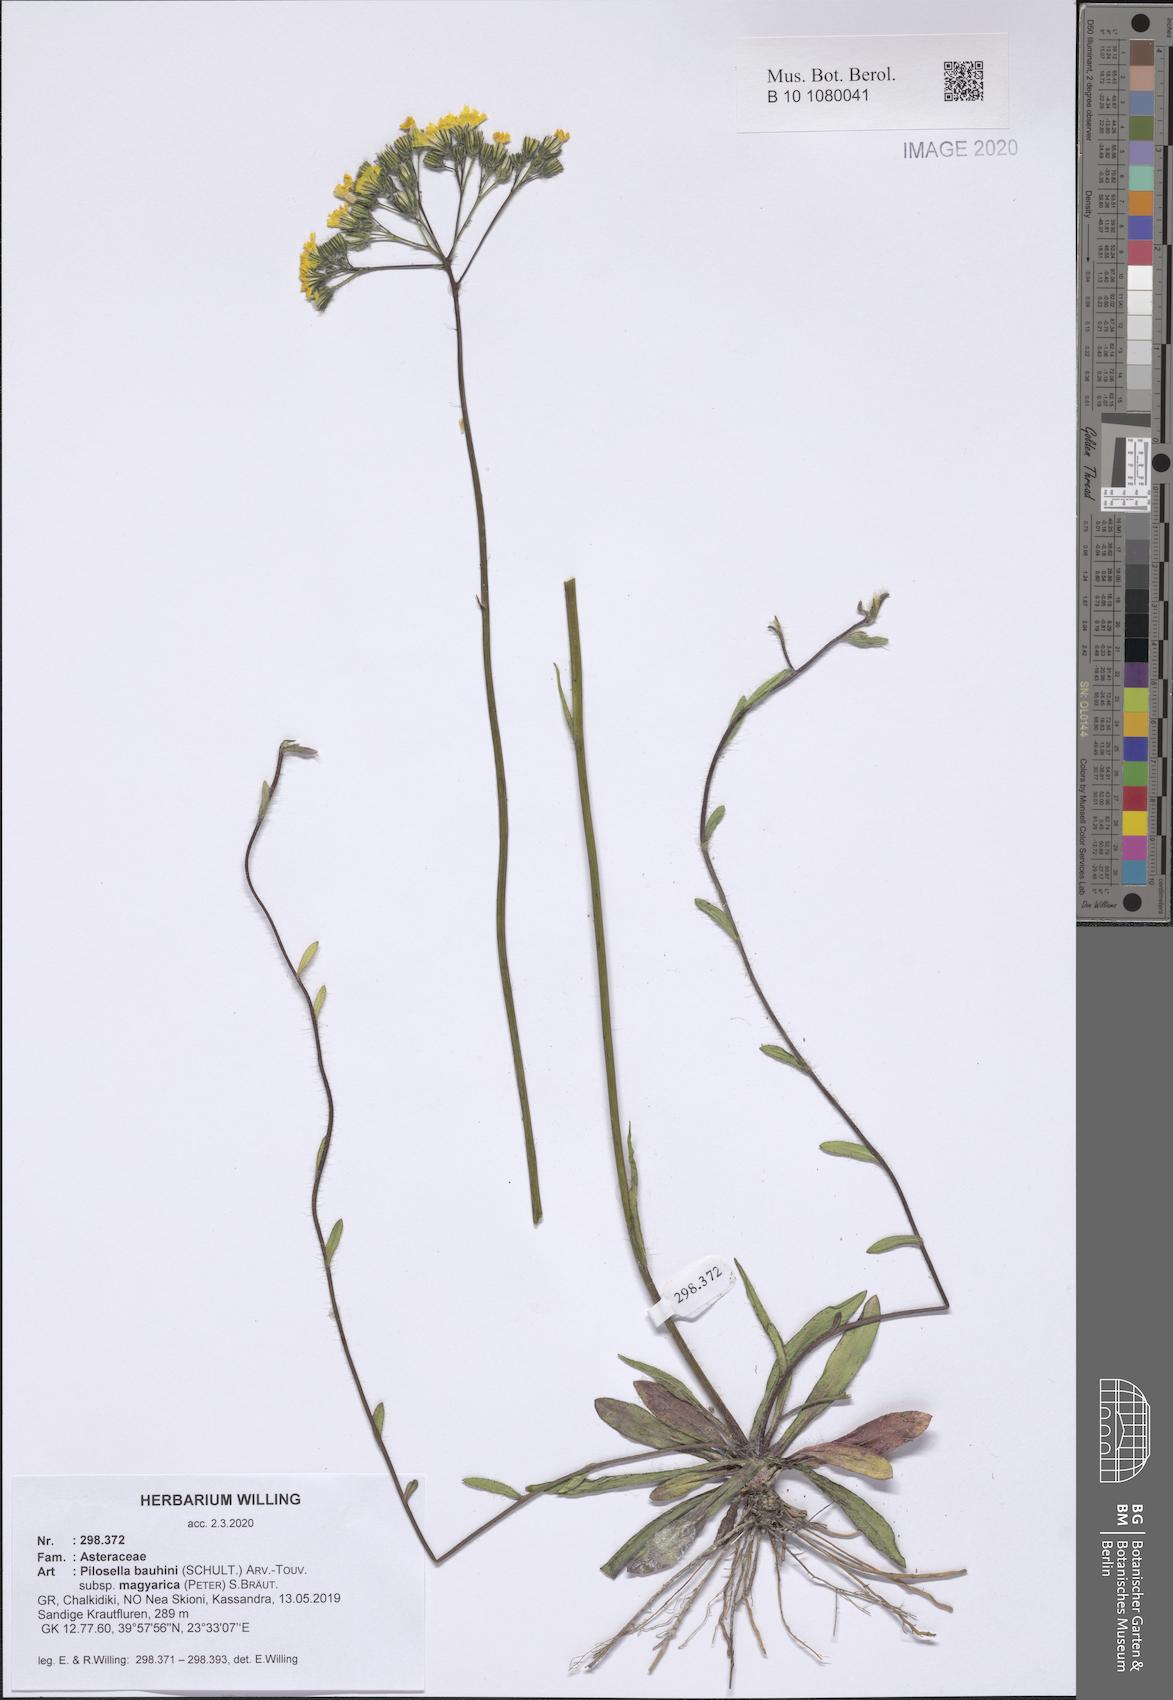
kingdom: Plantae
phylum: Tracheophyta
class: Magnoliopsida
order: Asterales
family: Asteraceae
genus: Pilosella
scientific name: Pilosella bauhini
